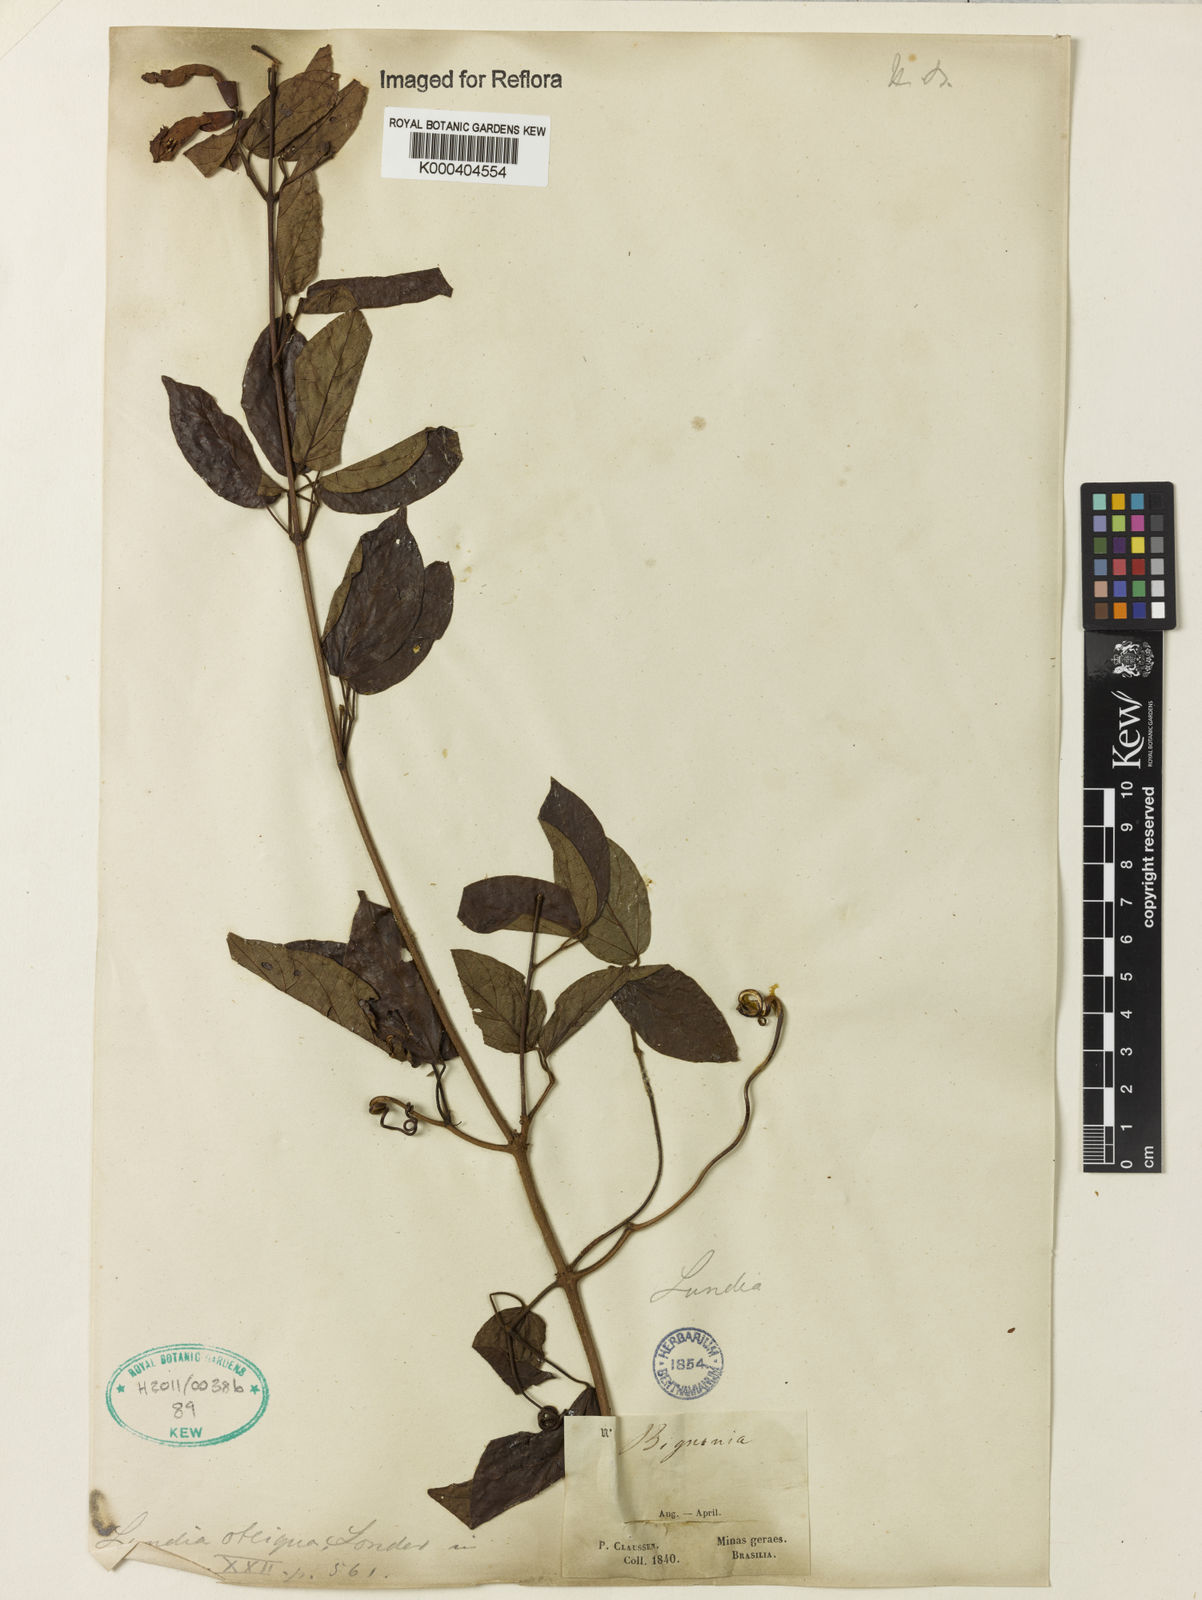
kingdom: Plantae
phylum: Tracheophyta
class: Magnoliopsida
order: Lamiales
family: Bignoniaceae
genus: Lundia
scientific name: Lundia obliqua
